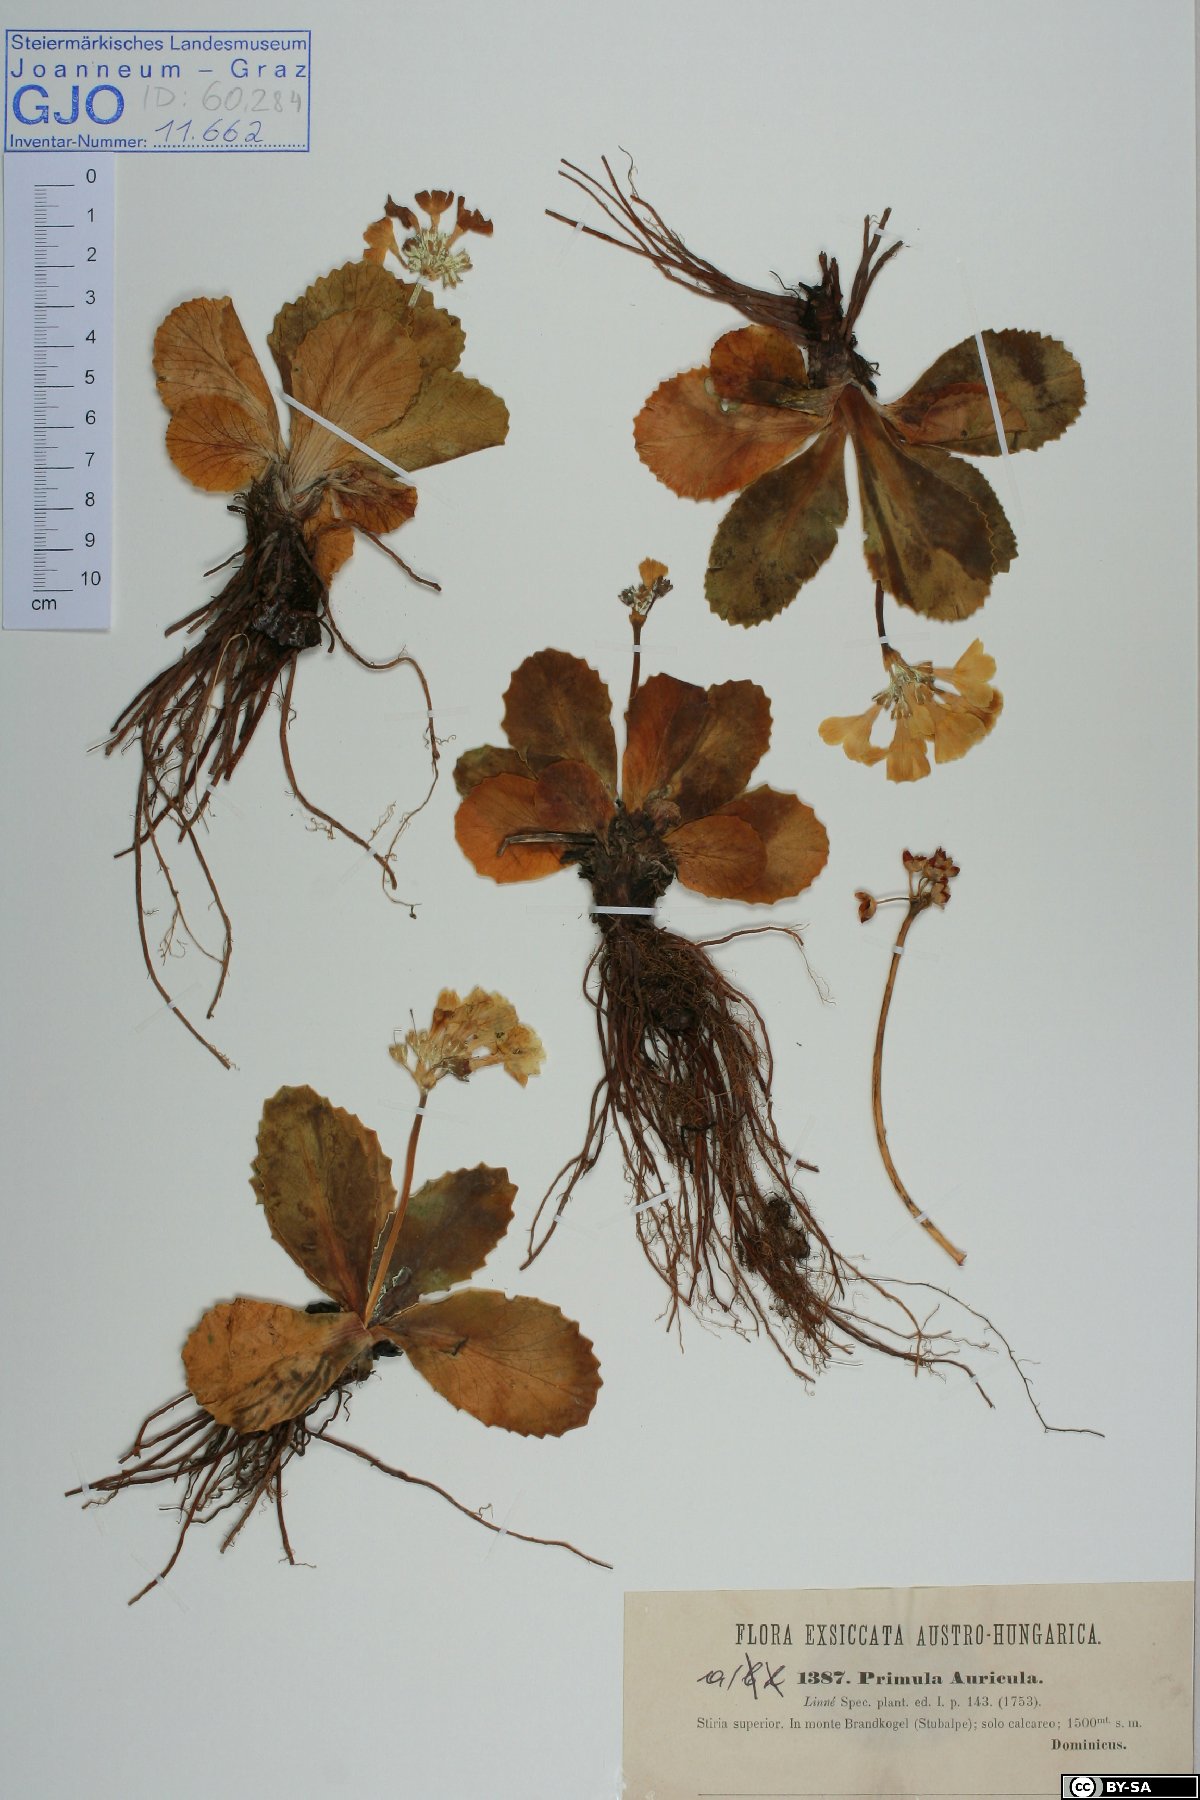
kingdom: Plantae
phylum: Tracheophyta
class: Magnoliopsida
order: Ericales
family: Primulaceae
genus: Primula
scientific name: Primula auricula
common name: Auricula
